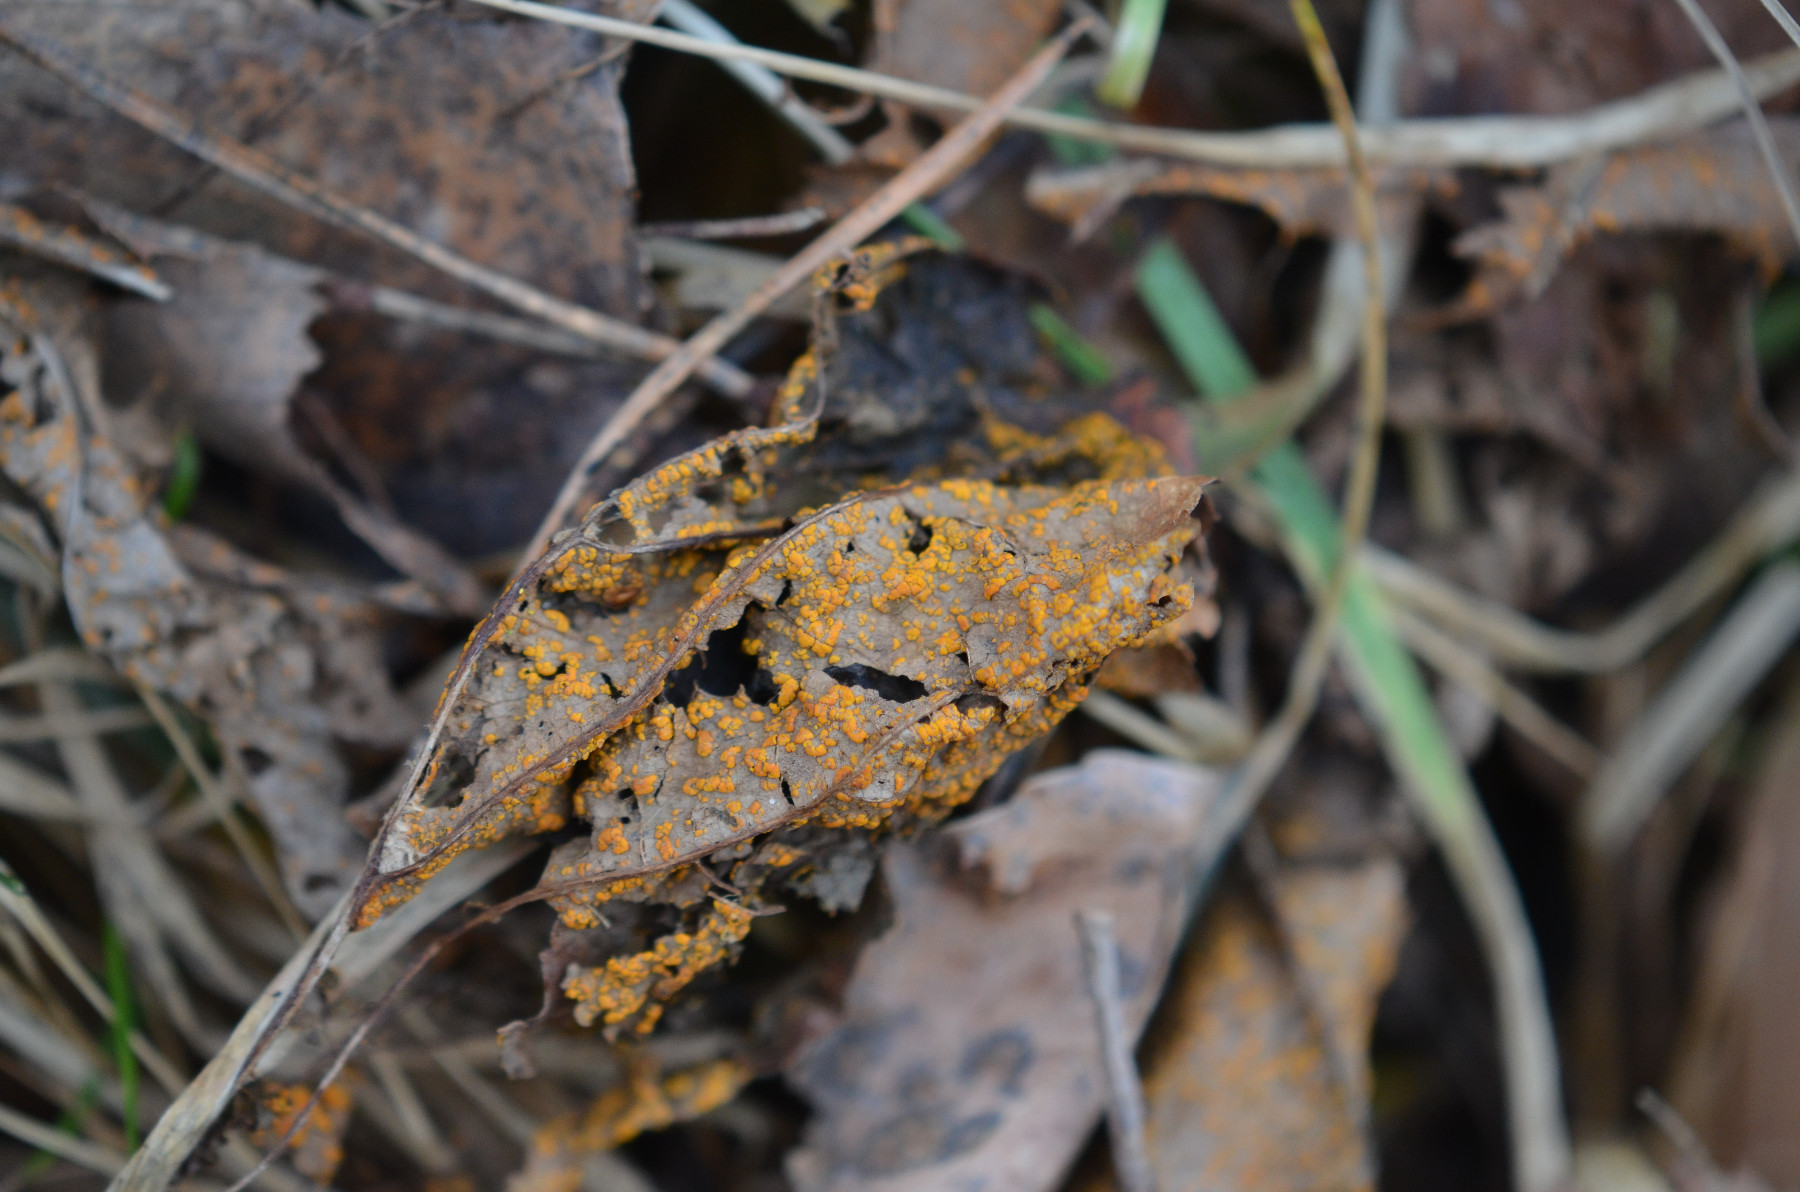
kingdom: Fungi
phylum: Basidiomycota
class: Pucciniomycetes
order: Pucciniales
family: Pucciniastraceae
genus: Melampsoridium
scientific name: Melampsoridium
